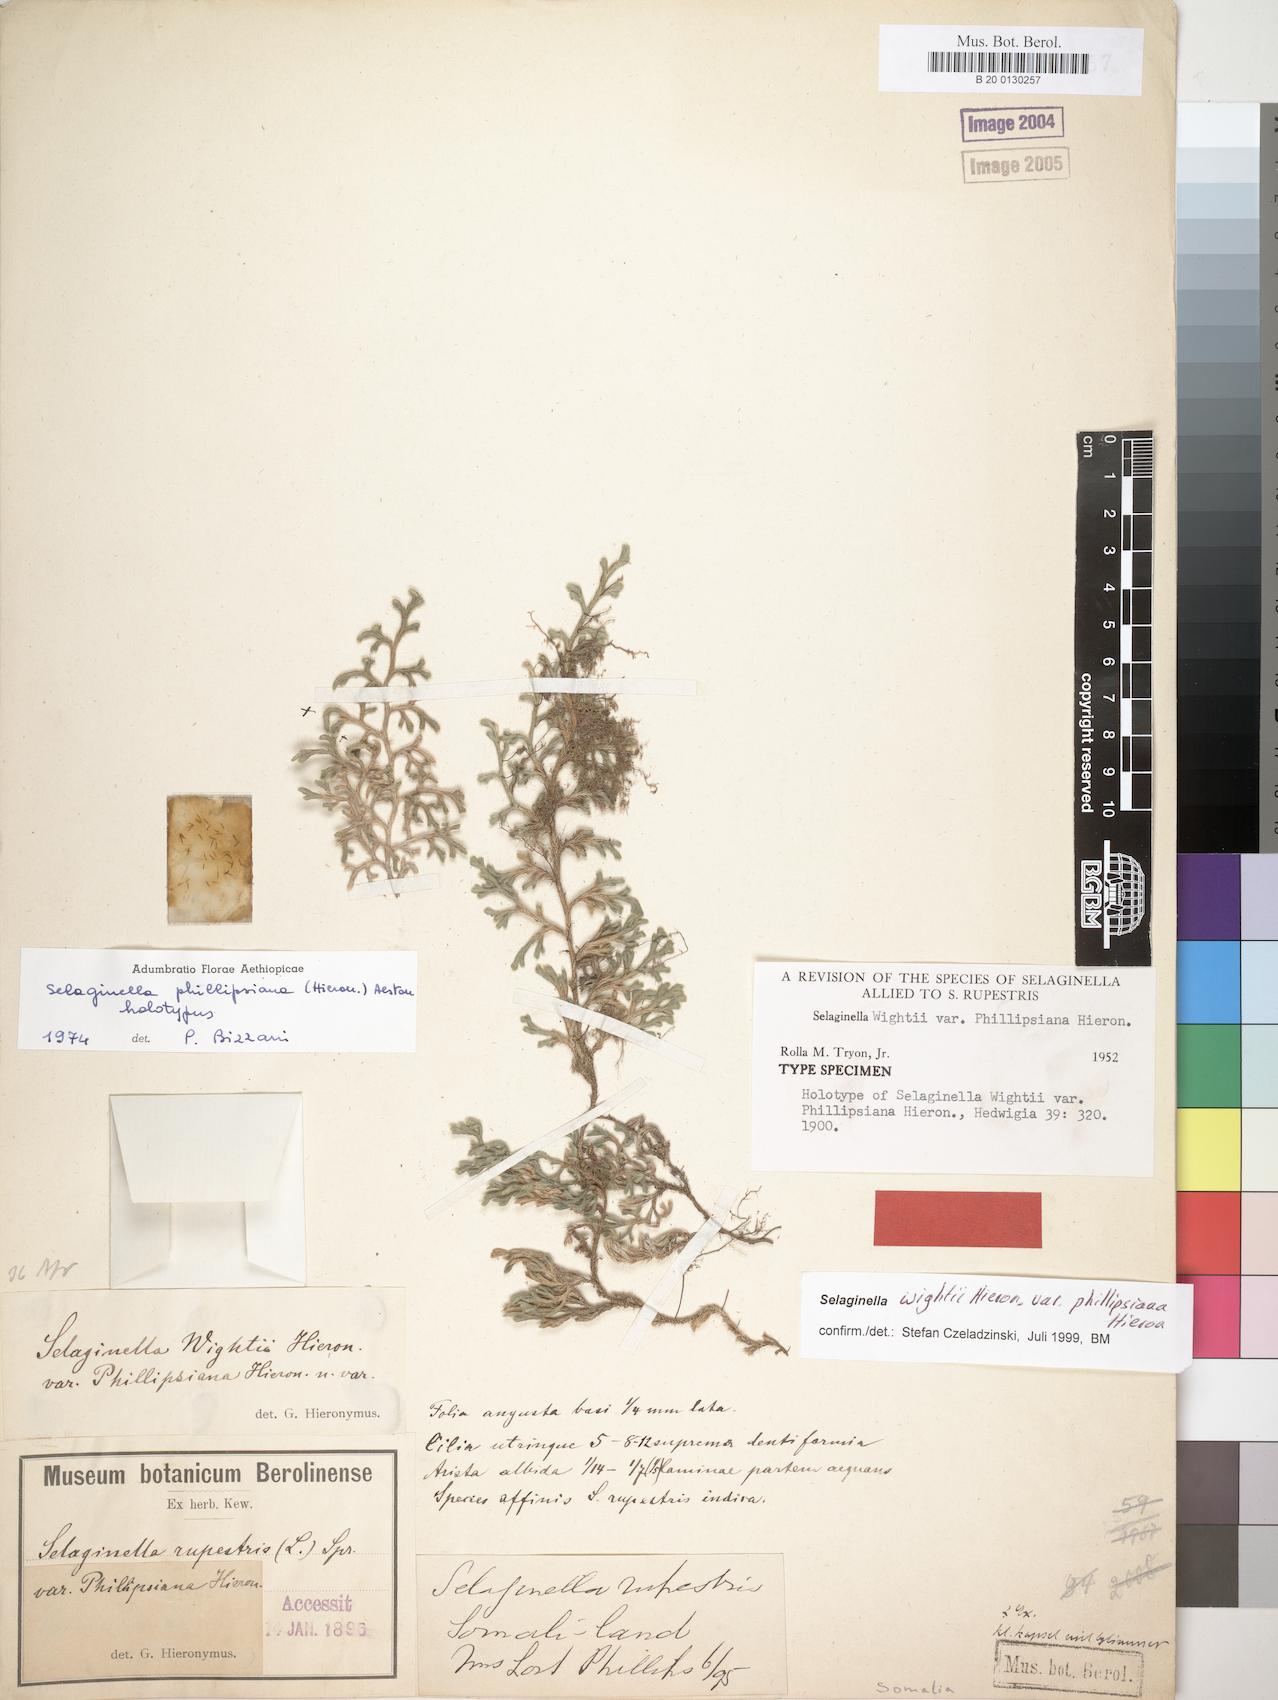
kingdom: Plantae
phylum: Tracheophyta
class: Lycopodiopsida
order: Selaginellales
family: Selaginellaceae
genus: Selaginella
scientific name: Selaginella phillipsina
